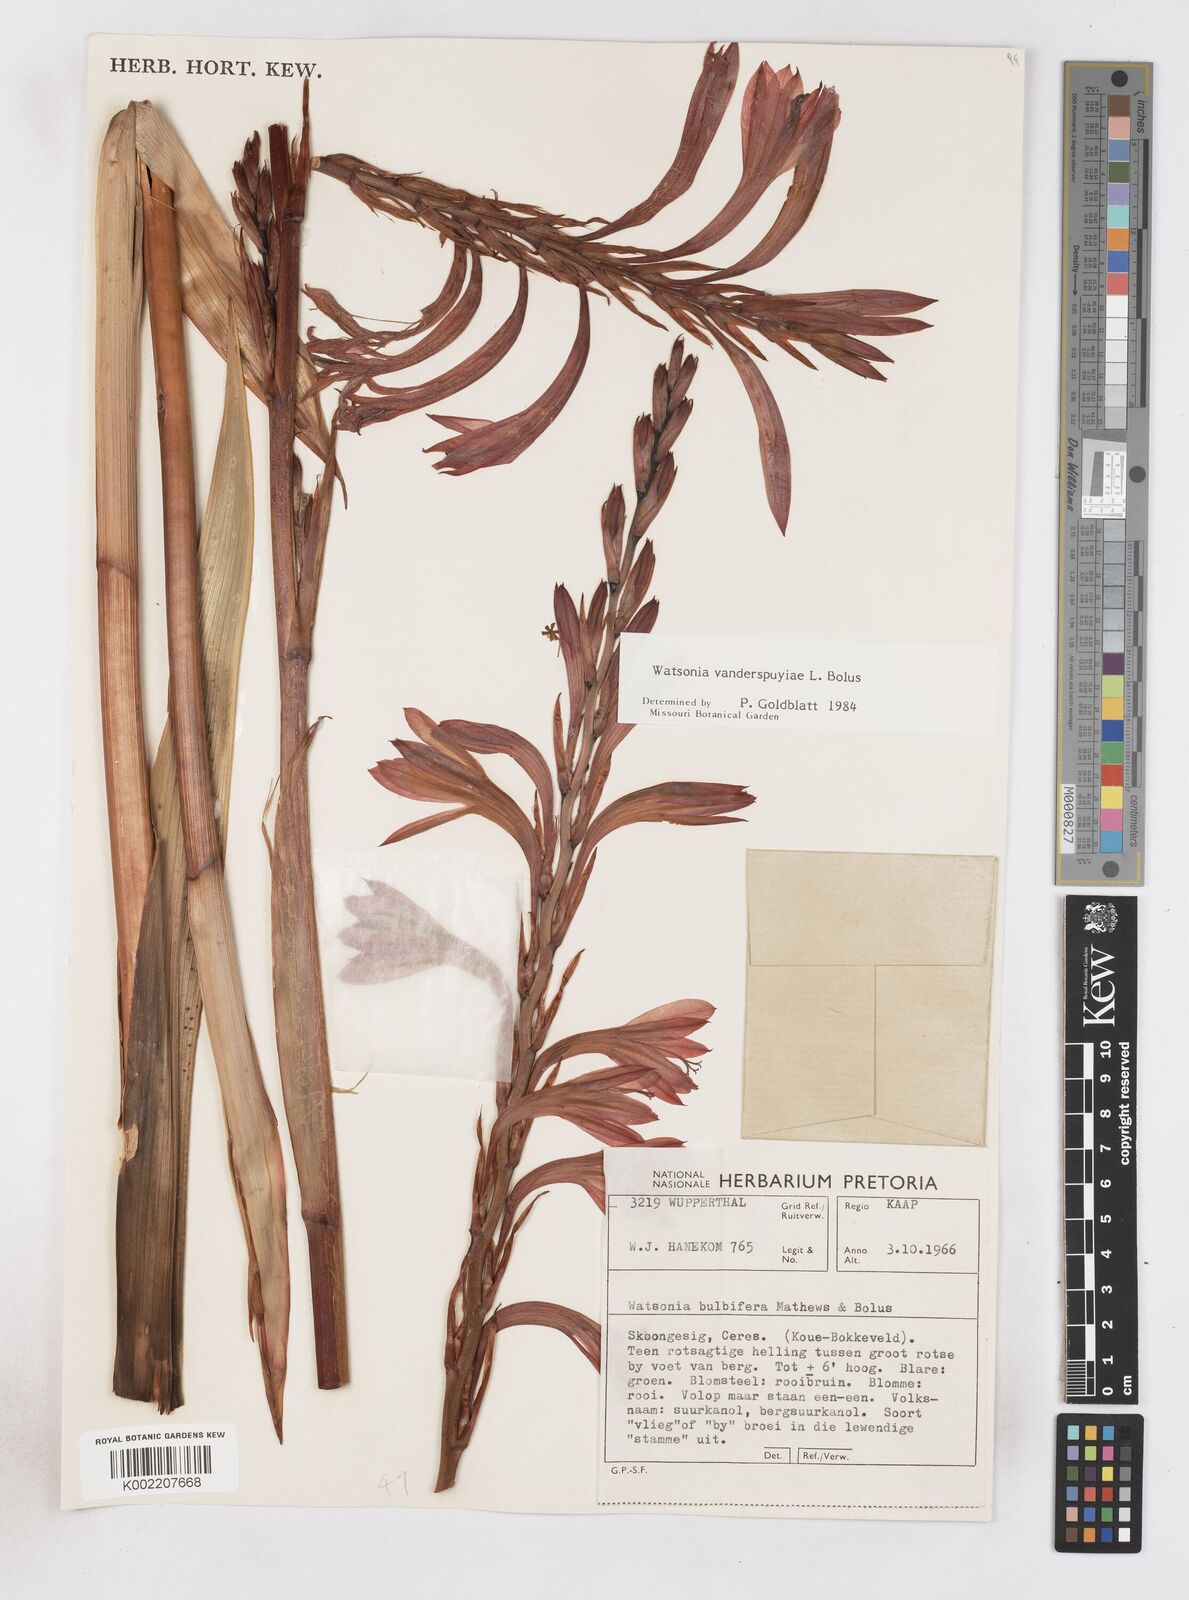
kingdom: Plantae
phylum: Tracheophyta
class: Liliopsida
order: Asparagales
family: Iridaceae
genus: Watsonia
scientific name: Watsonia vanderspuyae
